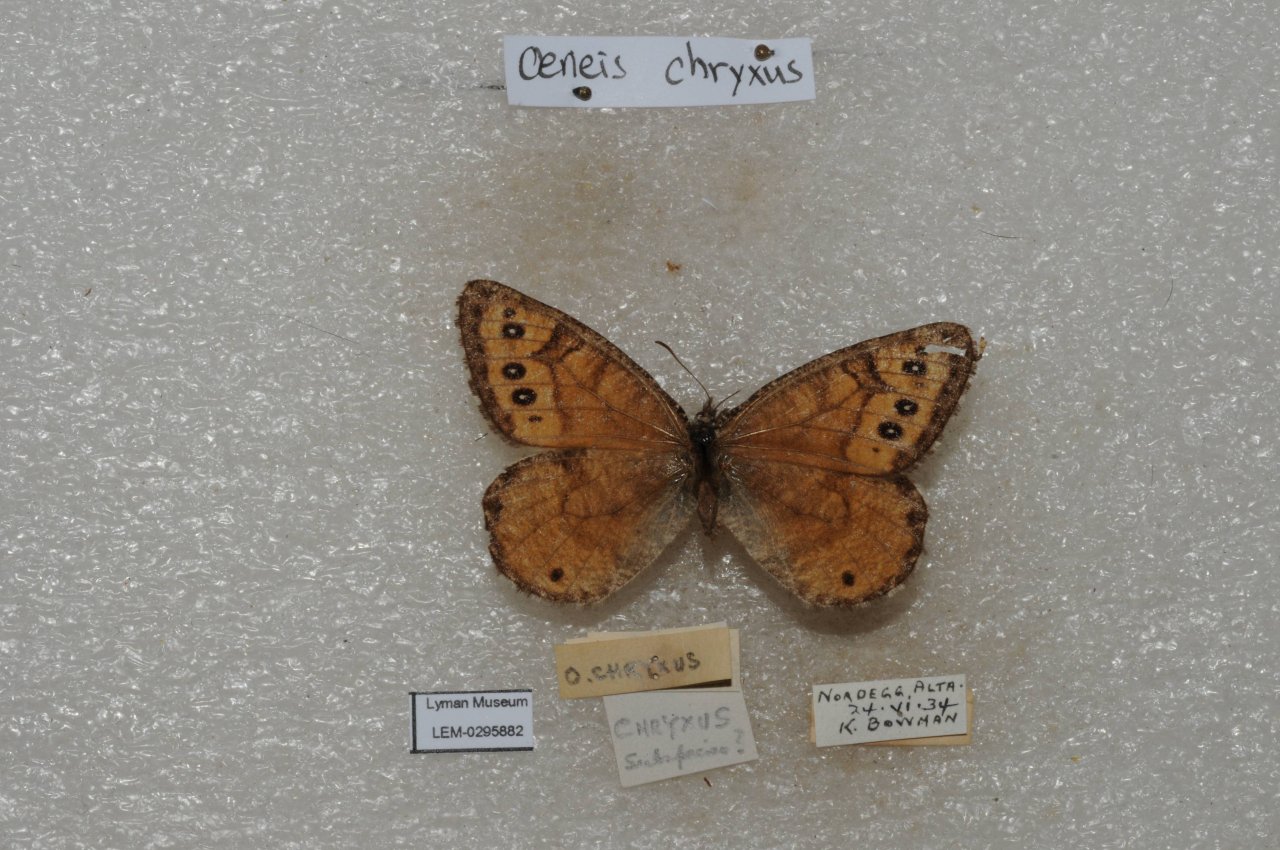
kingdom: Animalia
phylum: Arthropoda
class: Insecta
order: Lepidoptera
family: Nymphalidae
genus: Oeneis
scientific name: Oeneis chryxus
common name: Chryxus Arctic
